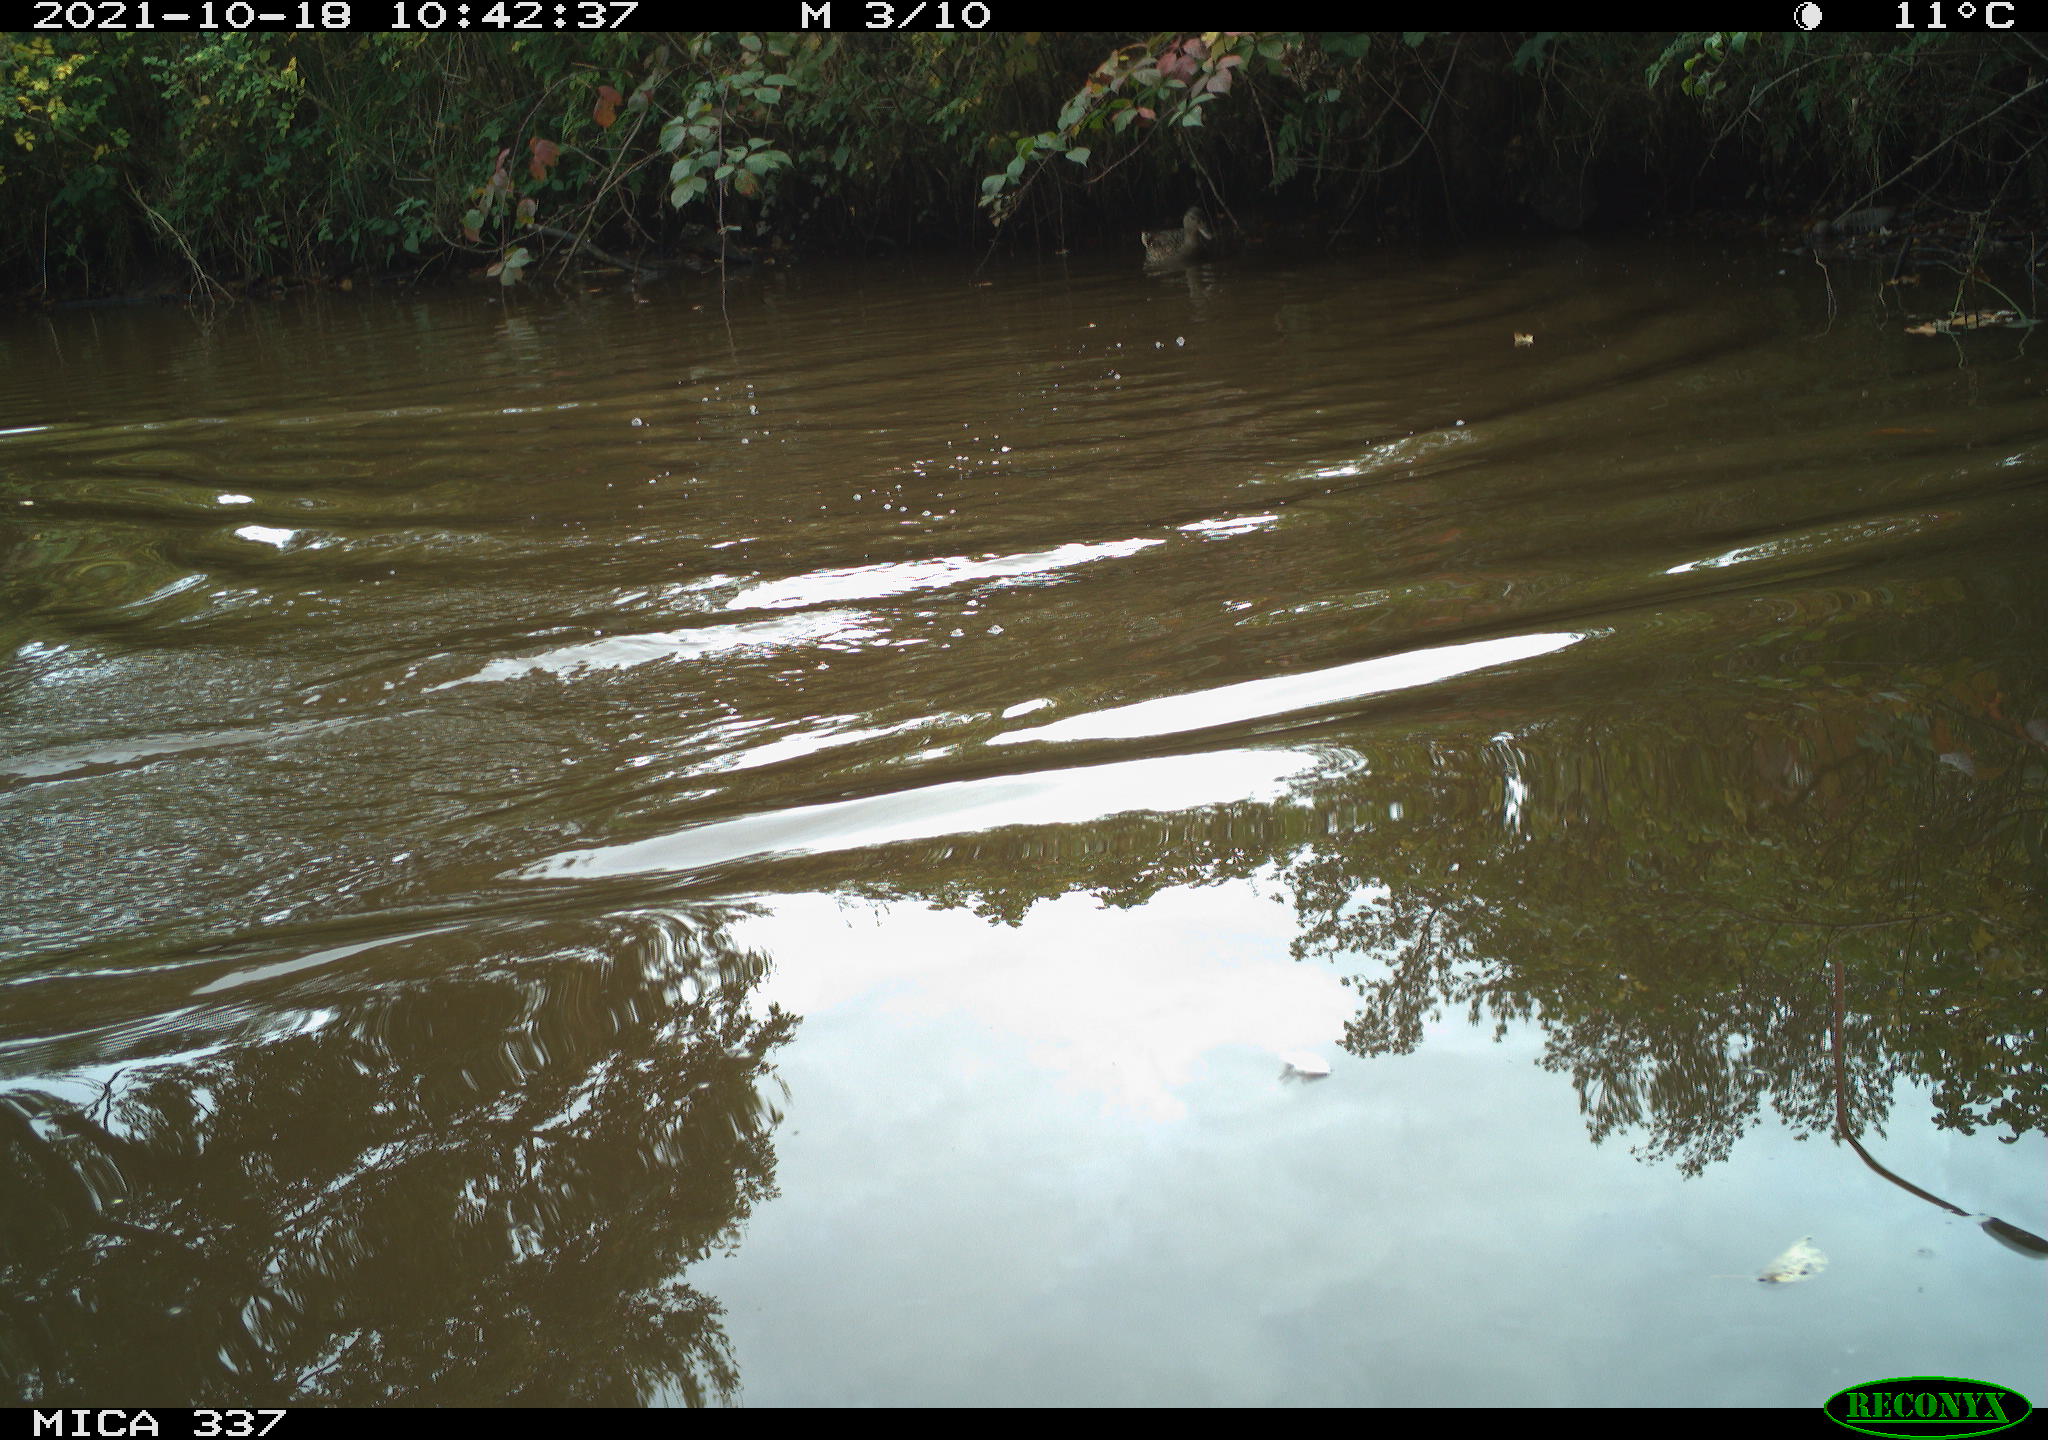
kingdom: Animalia
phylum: Chordata
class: Aves
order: Anseriformes
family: Anatidae
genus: Anas
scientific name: Anas platyrhynchos
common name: Mallard
